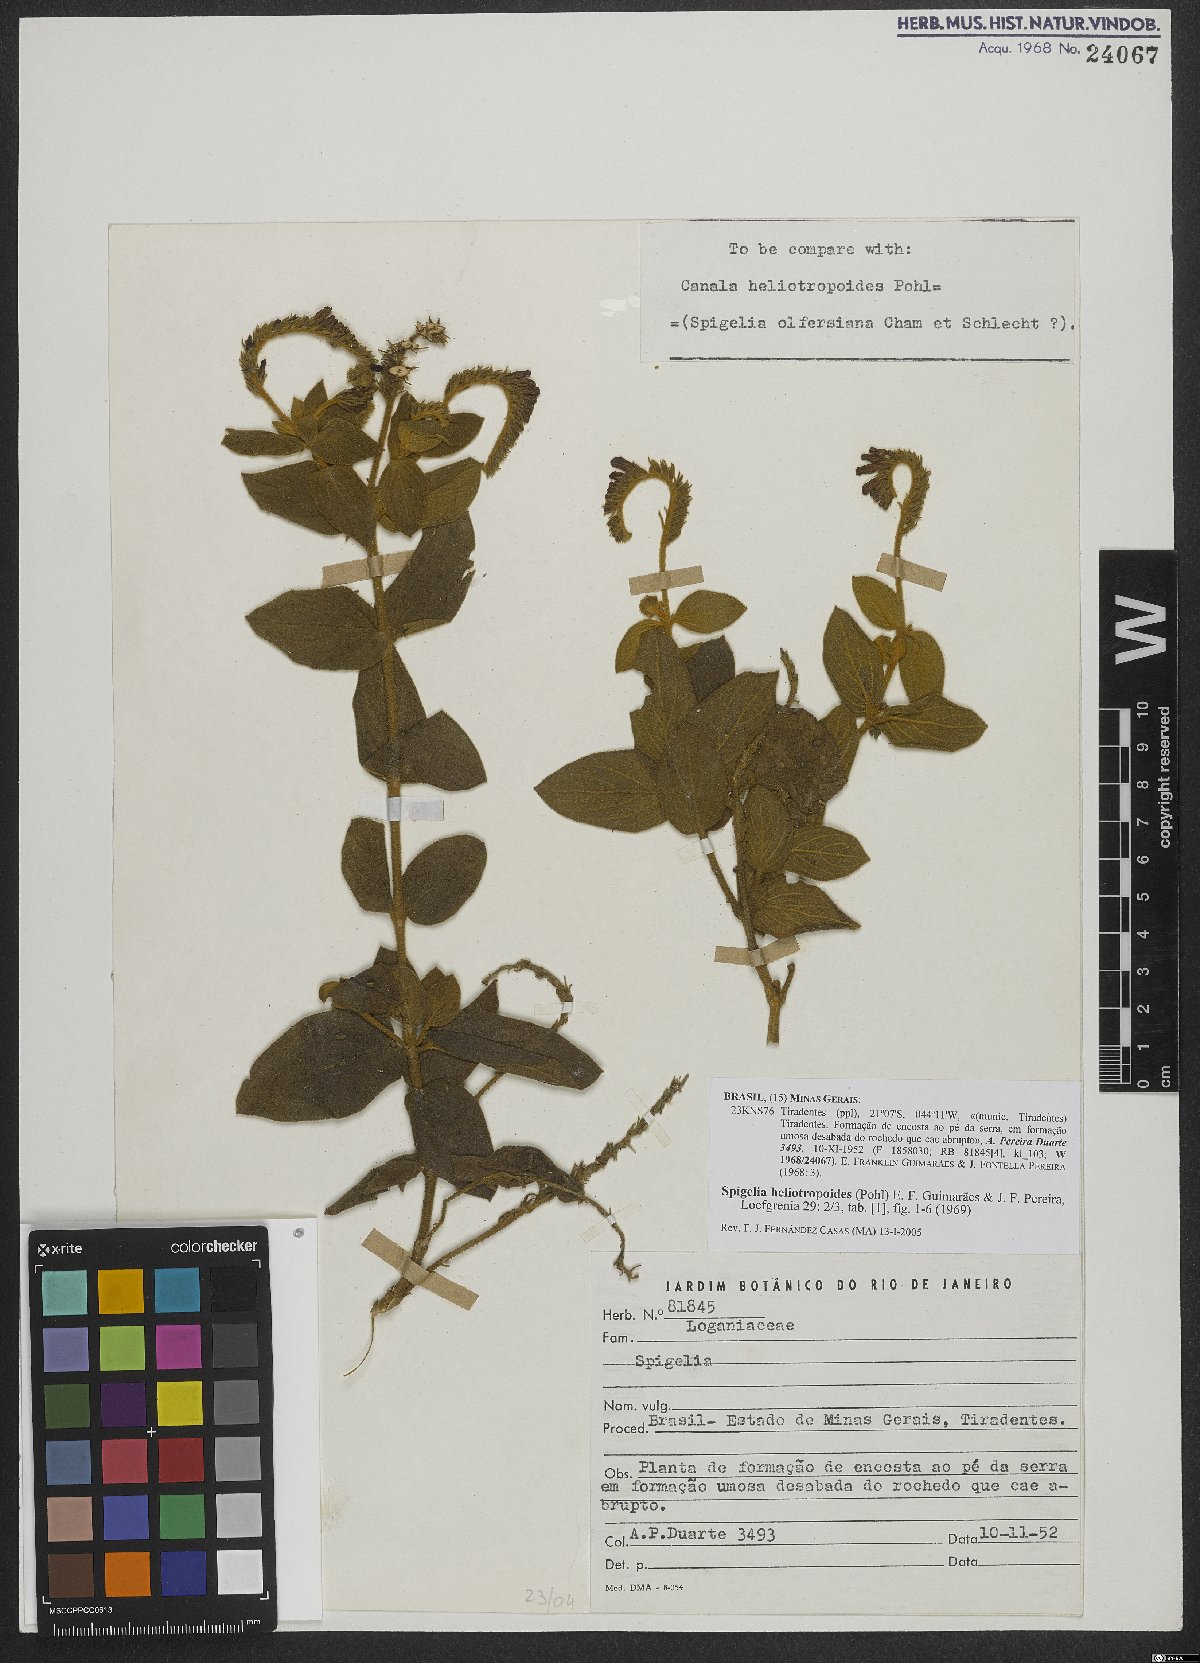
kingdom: Plantae
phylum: Tracheophyta
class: Magnoliopsida
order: Gentianales
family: Loganiaceae
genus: Spigelia
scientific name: Spigelia heliotropoides
